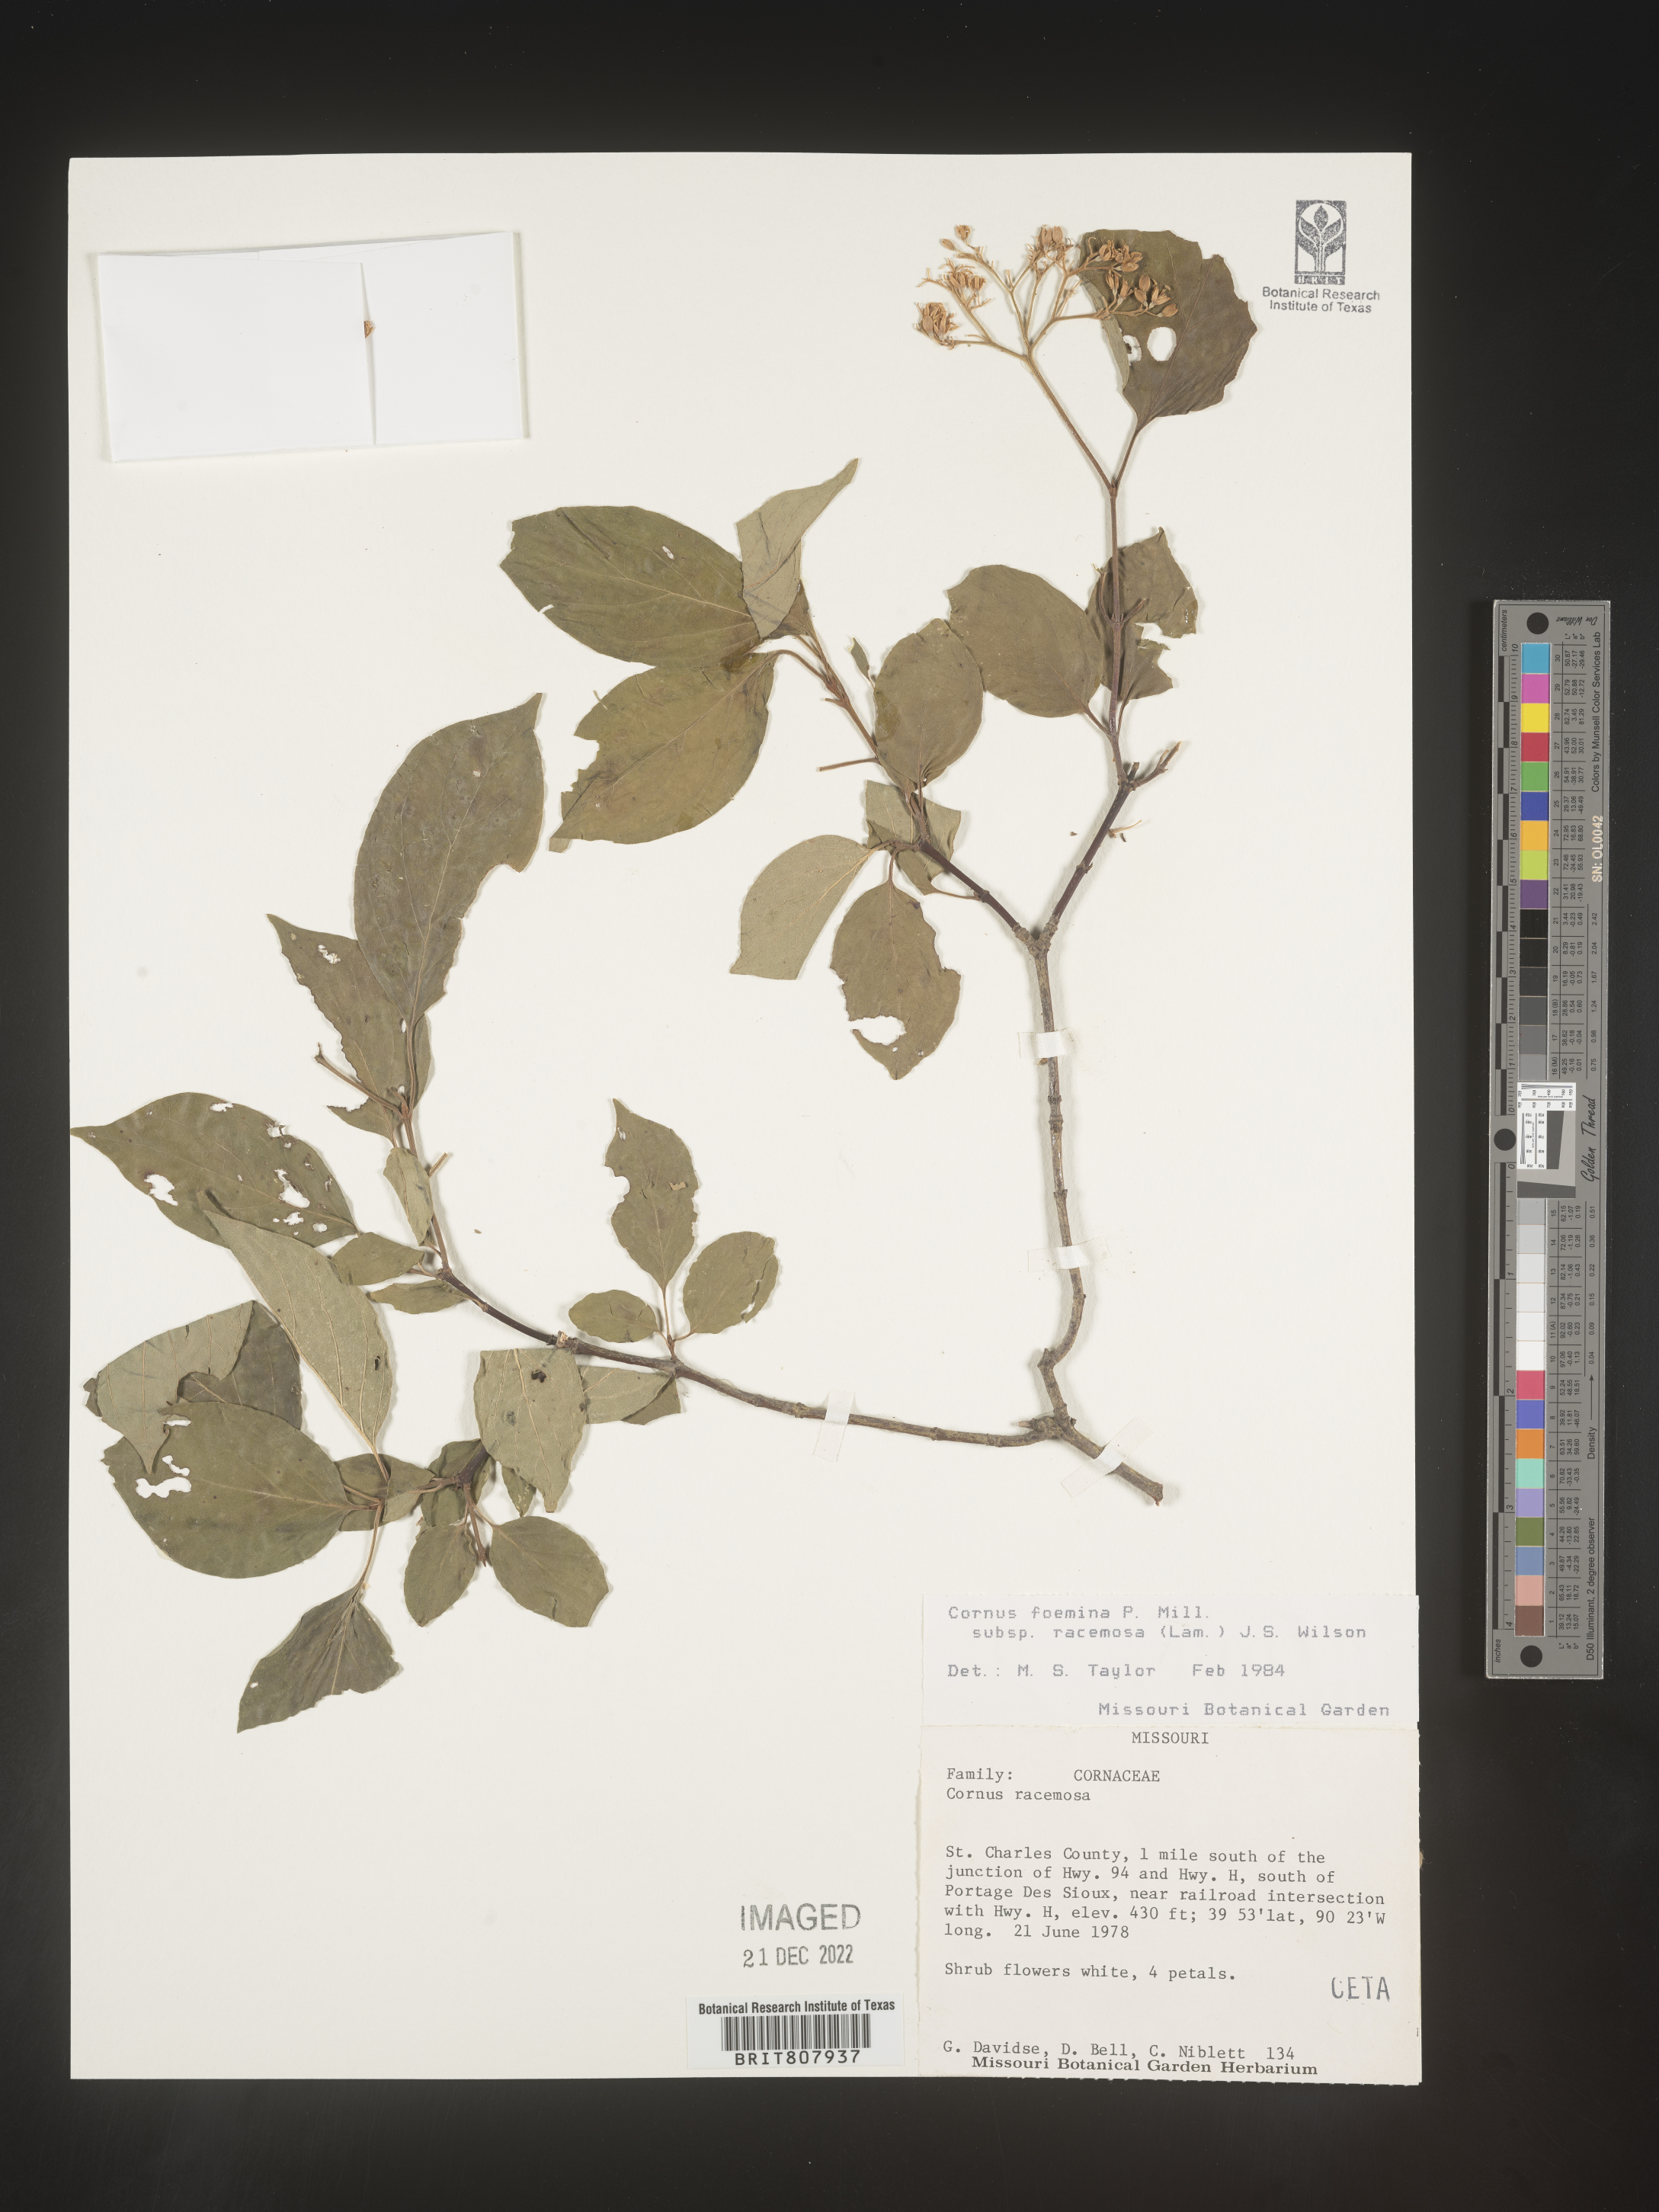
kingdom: Plantae
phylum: Tracheophyta
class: Magnoliopsida
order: Cornales
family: Cornaceae
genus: Cornus
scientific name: Cornus racemosa
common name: Panicled dogwood
